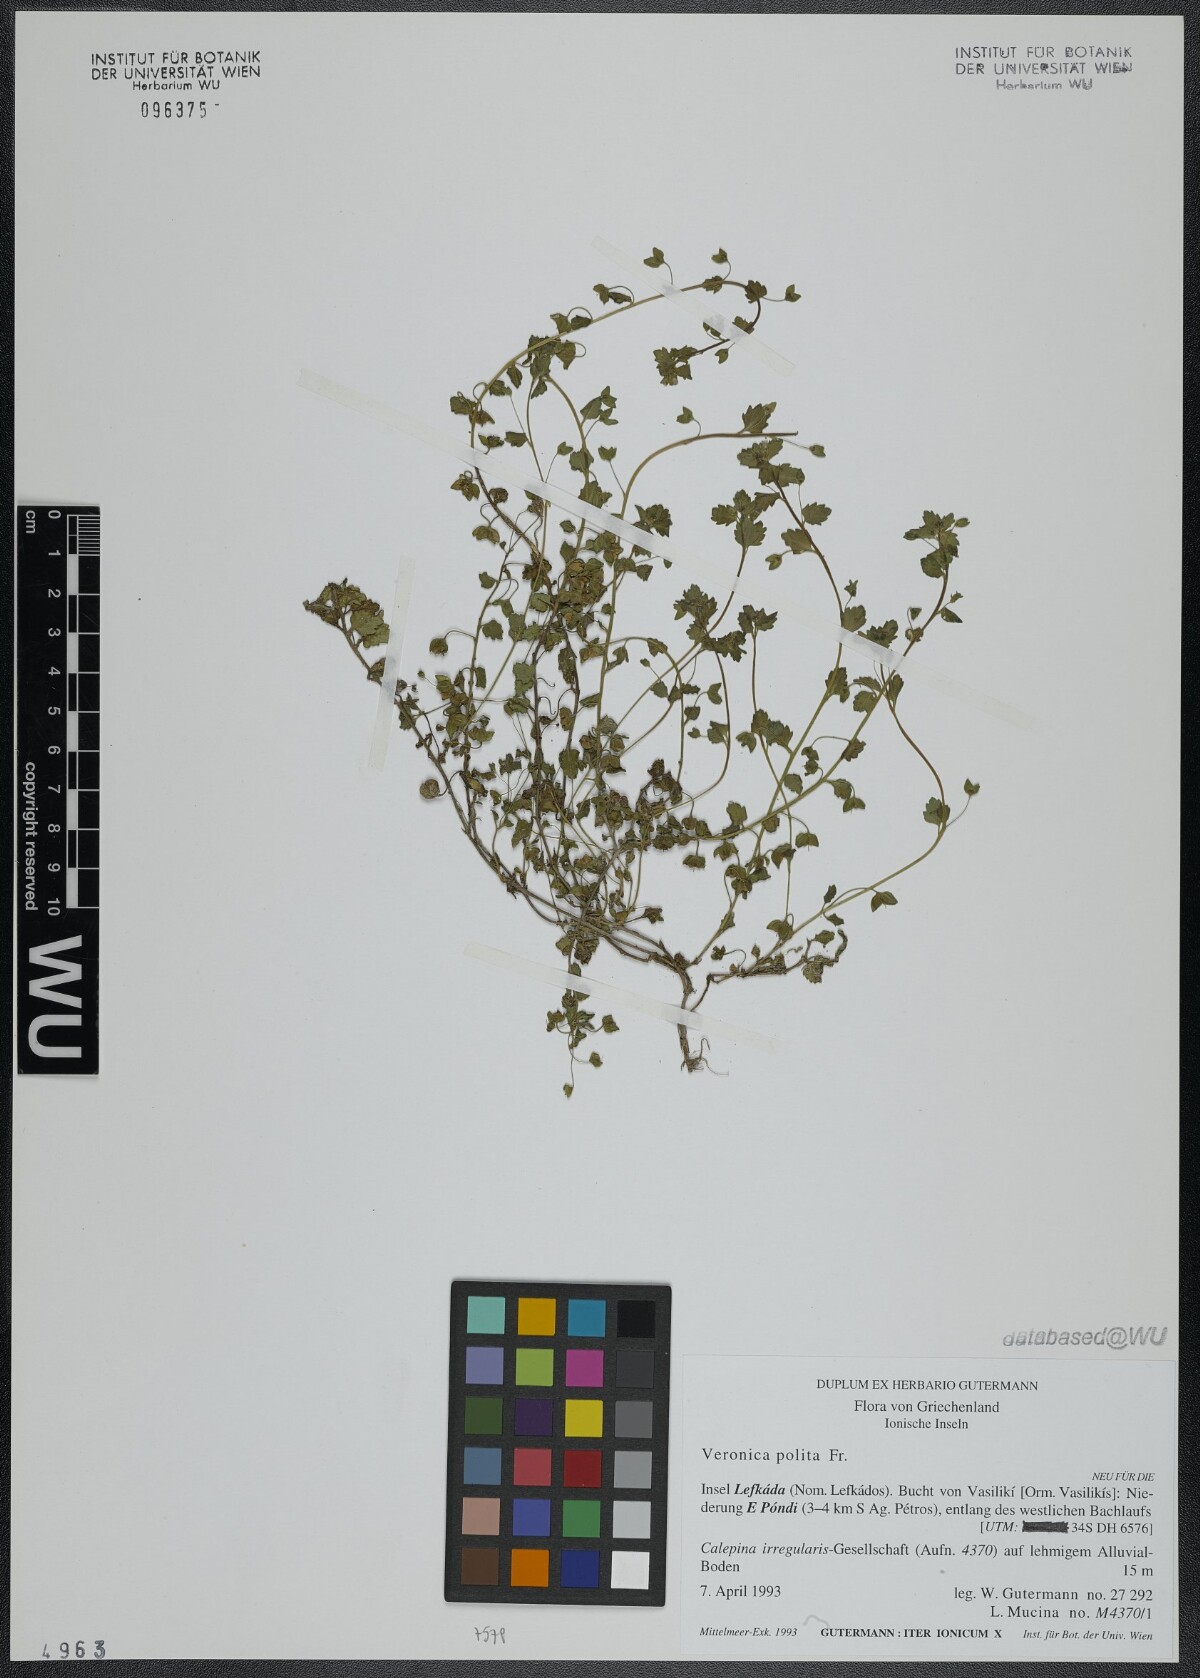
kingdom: Plantae
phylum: Tracheophyta
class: Magnoliopsida
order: Lamiales
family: Plantaginaceae
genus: Veronica
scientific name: Veronica polita
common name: Grey field-speedwell
